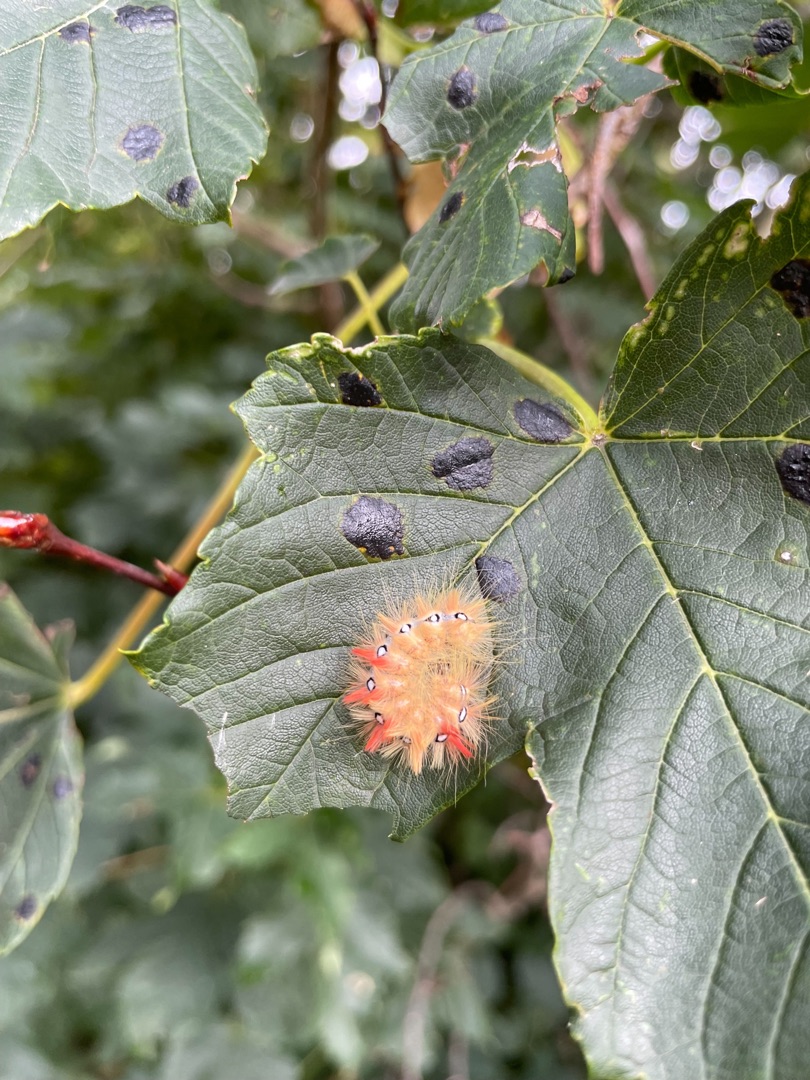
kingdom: Animalia
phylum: Arthropoda
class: Insecta
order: Lepidoptera
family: Noctuidae
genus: Acronicta
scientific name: Acronicta aceris
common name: Ahornugle
